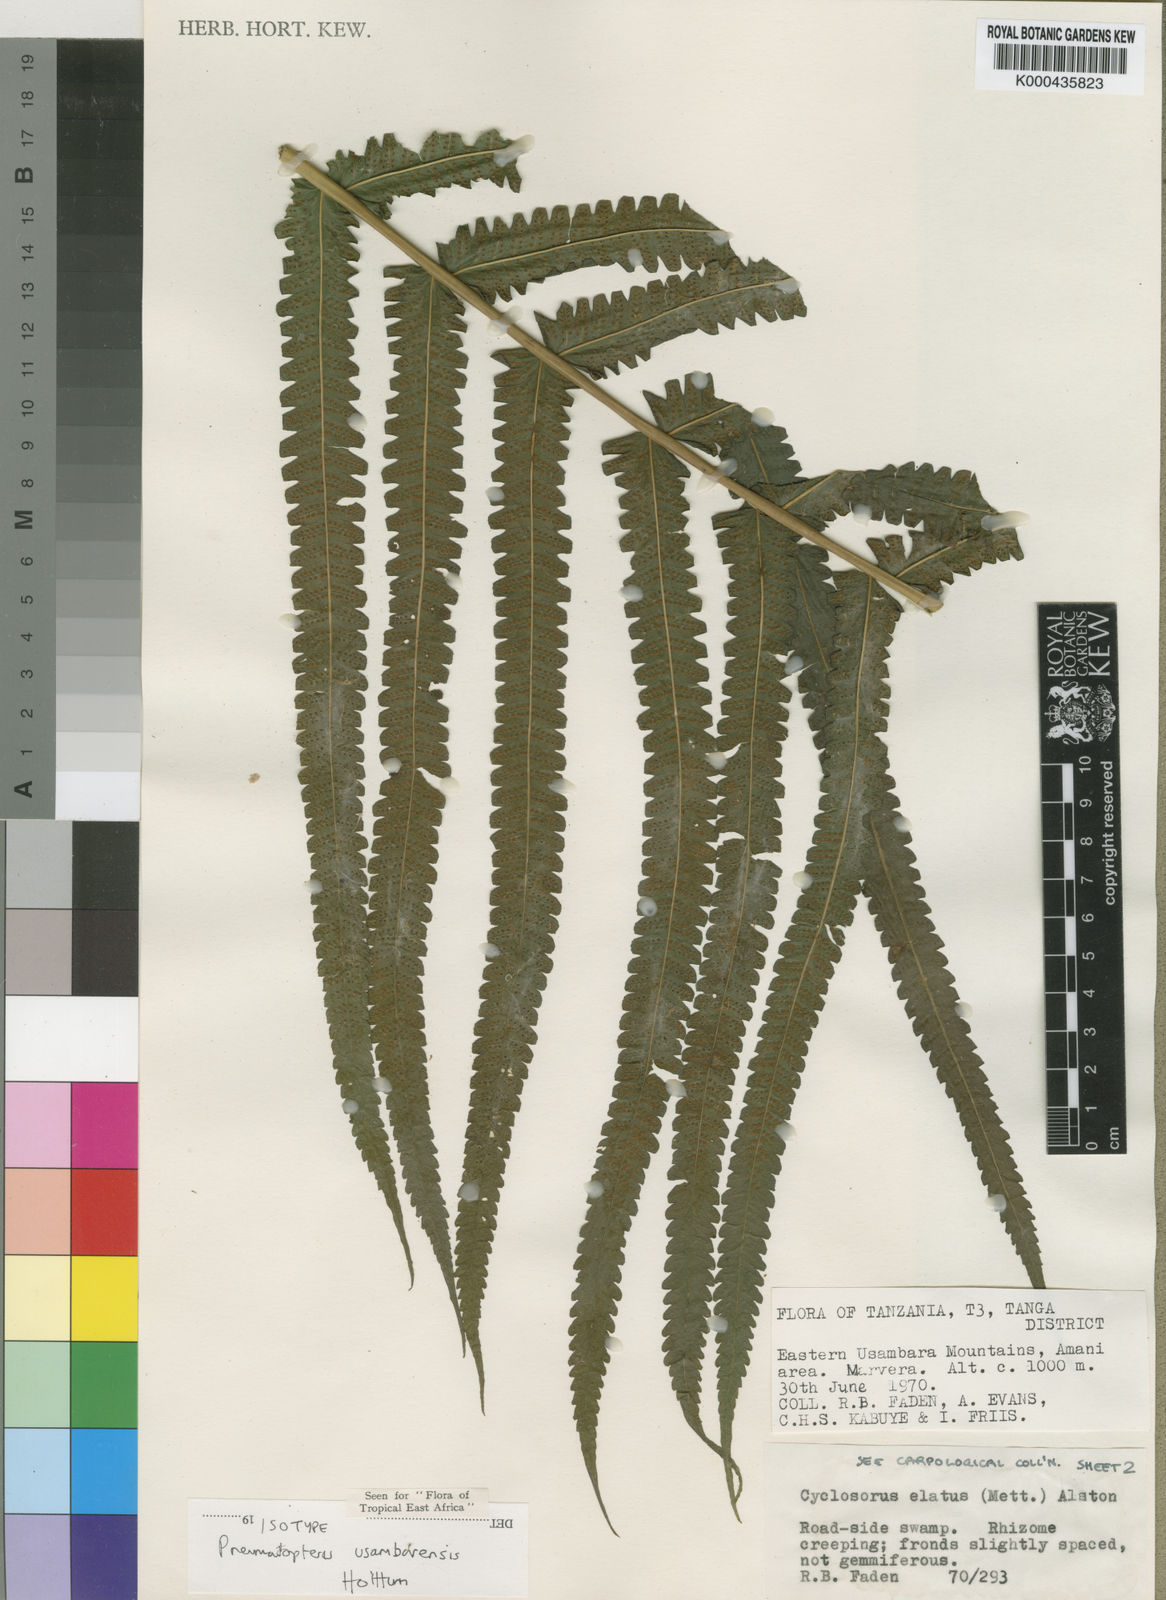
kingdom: Plantae
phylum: Tracheophyta
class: Polypodiopsida
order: Polypodiales
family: Thelypteridaceae
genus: Pneumatopteris
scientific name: Pneumatopteris usambarensis
